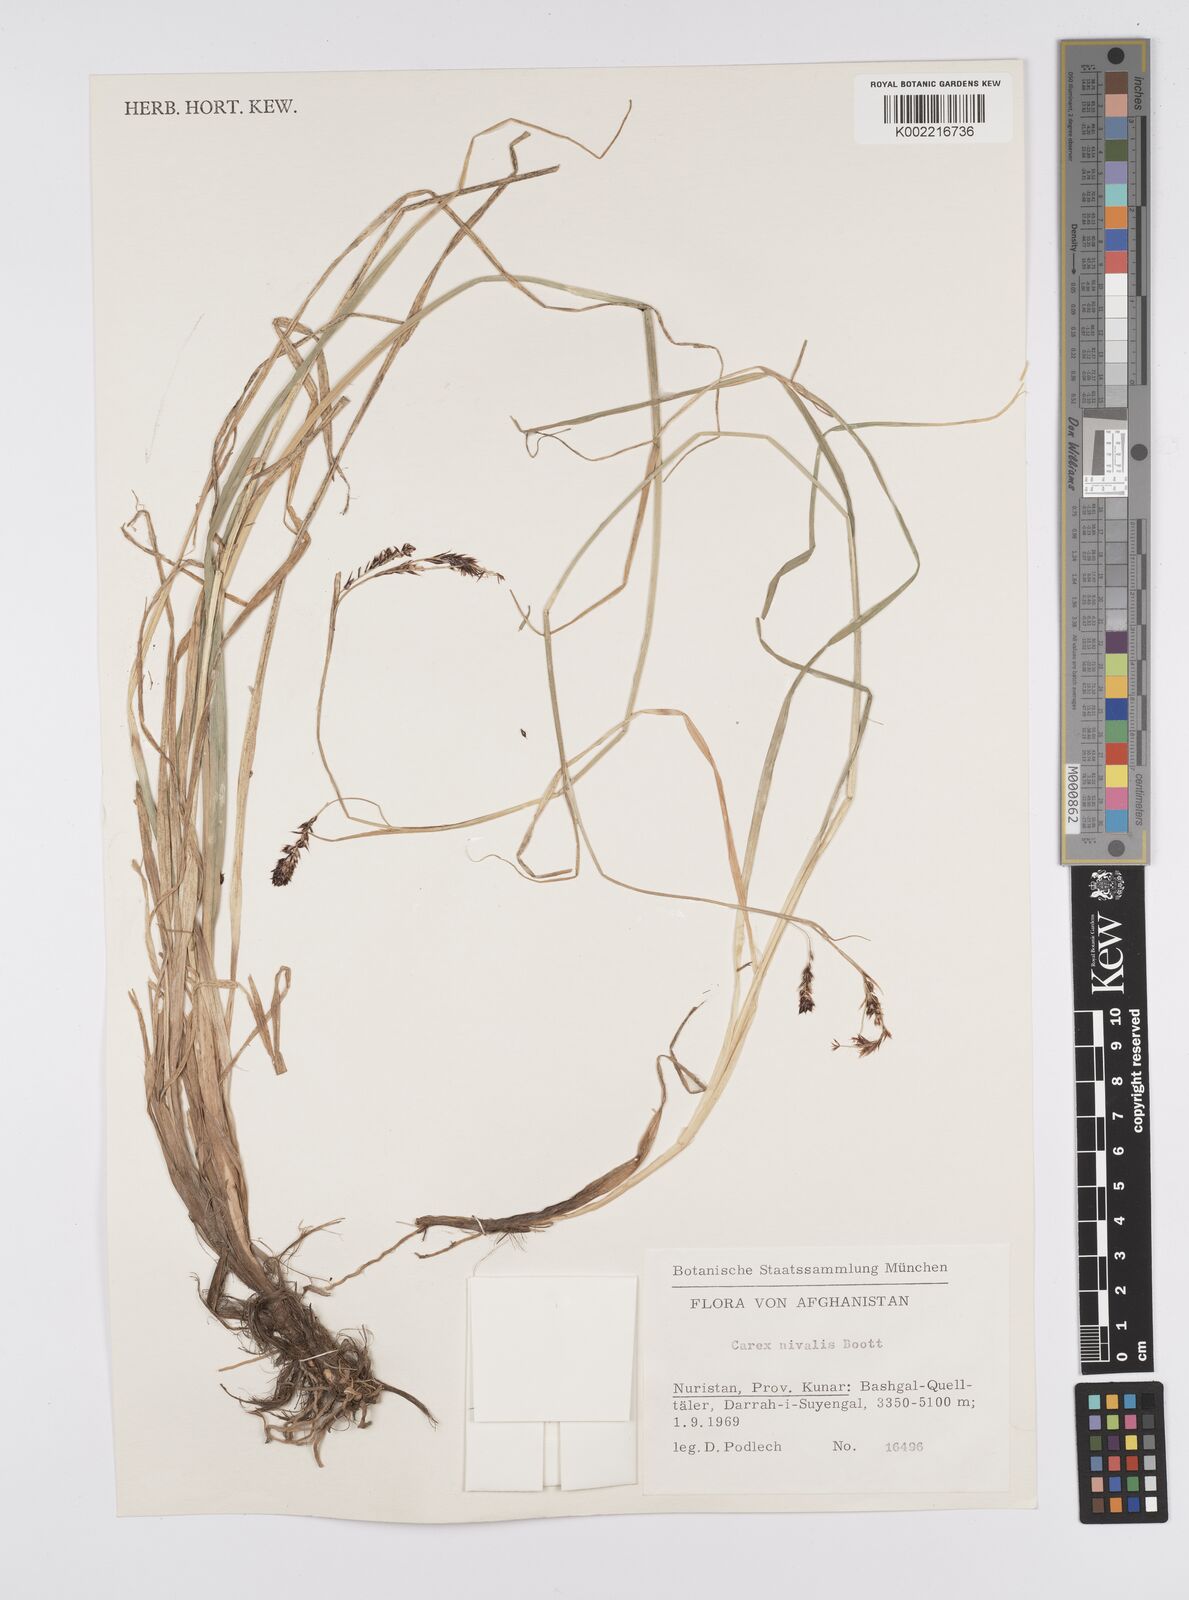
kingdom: Plantae
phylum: Tracheophyta
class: Liliopsida
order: Poales
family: Cyperaceae
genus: Carex
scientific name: Carex nivalis
